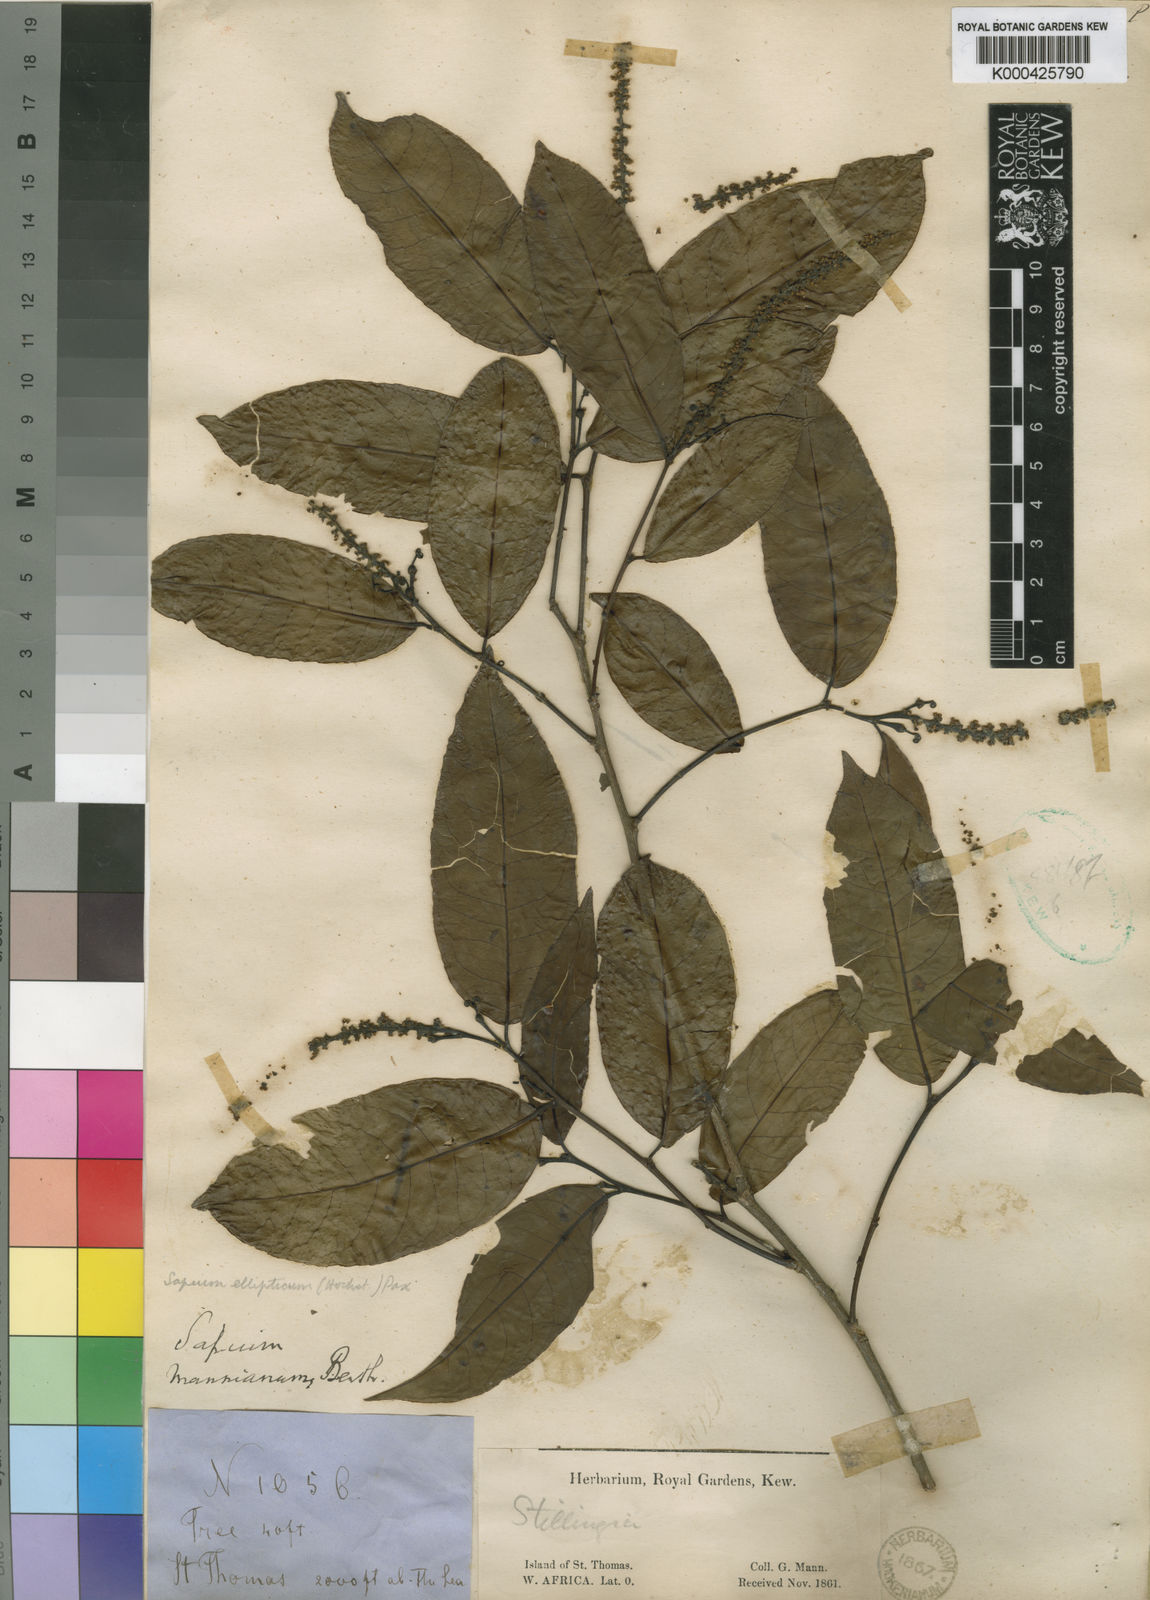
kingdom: Plantae
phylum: Tracheophyta
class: Magnoliopsida
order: Malpighiales
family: Euphorbiaceae
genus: Shirakiopsis
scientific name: Shirakiopsis elliptica
